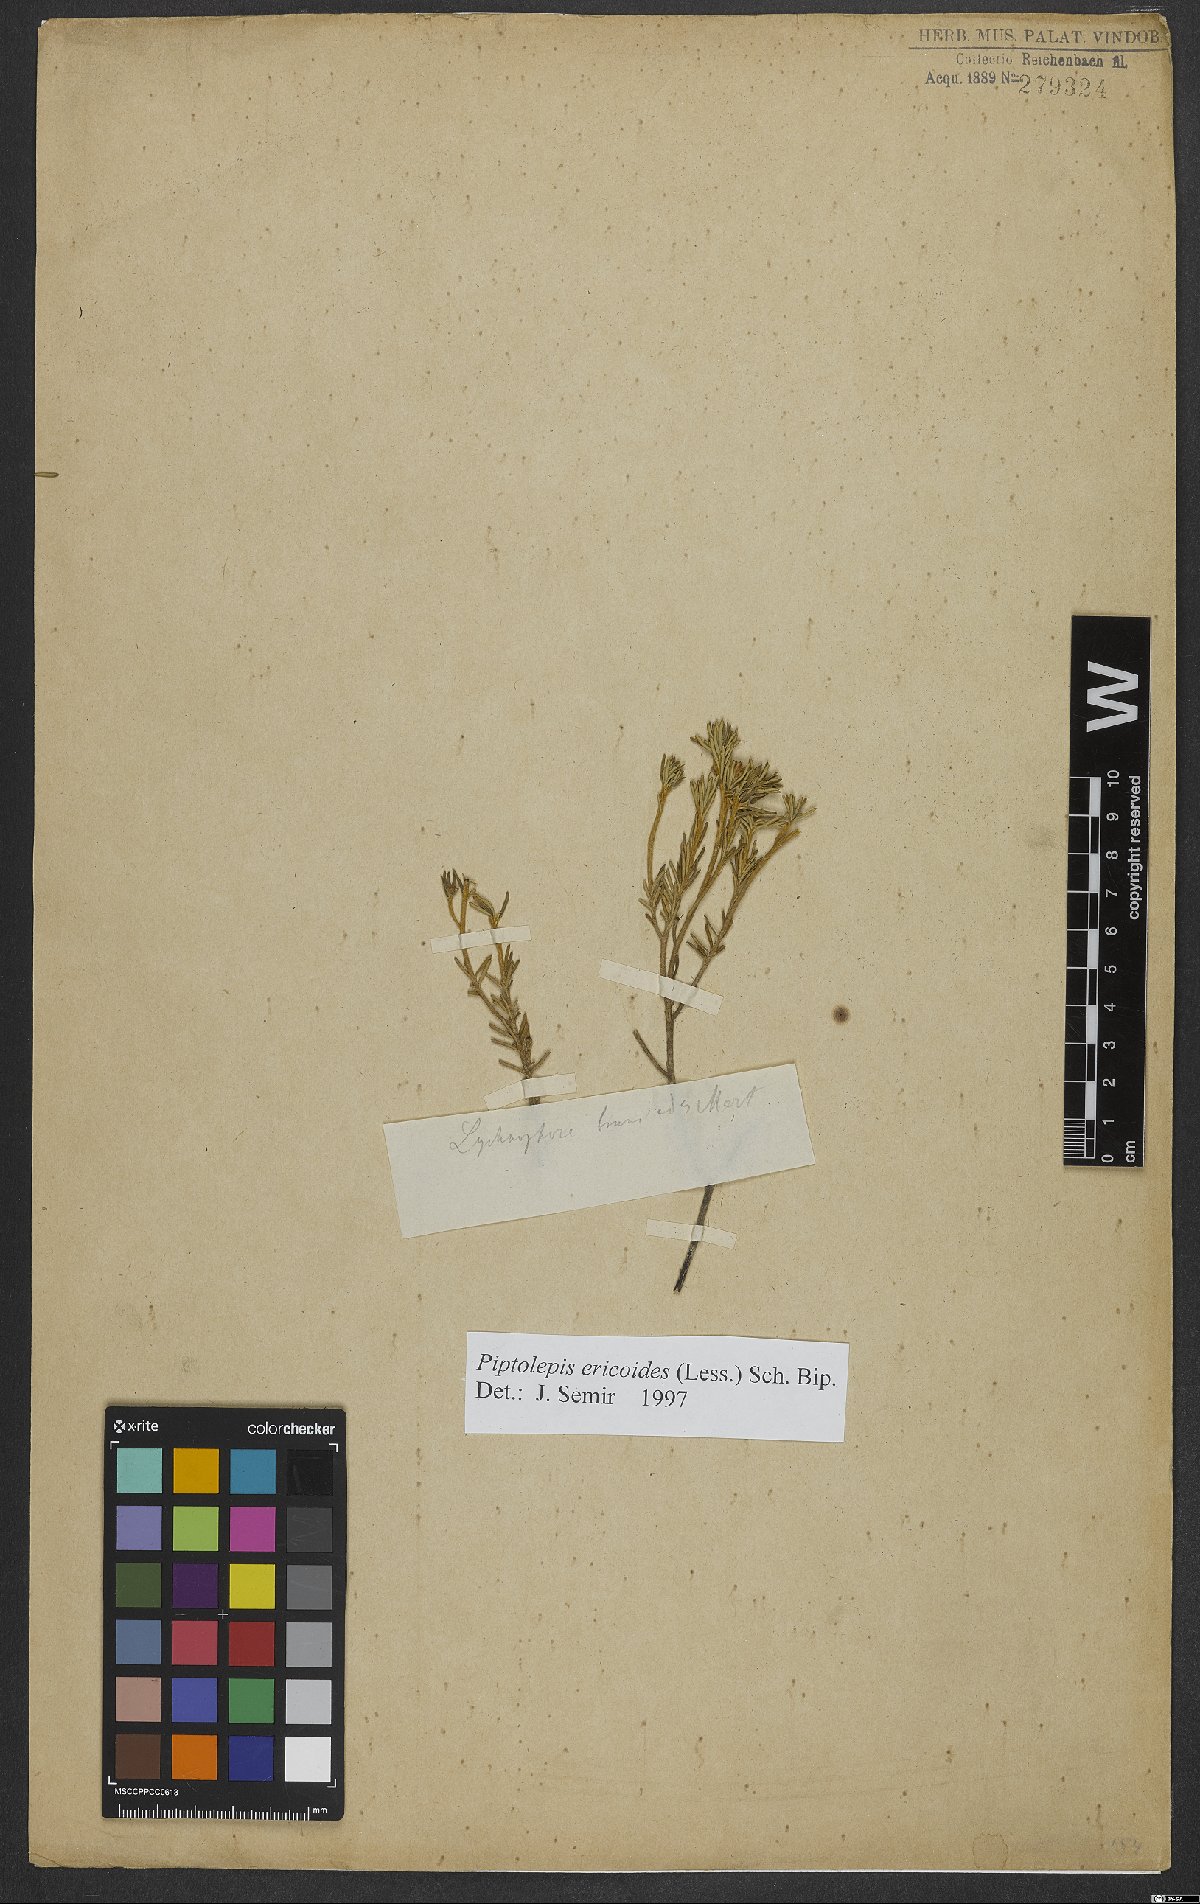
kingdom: Plantae
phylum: Tracheophyta
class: Magnoliopsida
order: Asterales
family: Asteraceae
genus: Piptolepis
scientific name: Piptolepis ericoides
